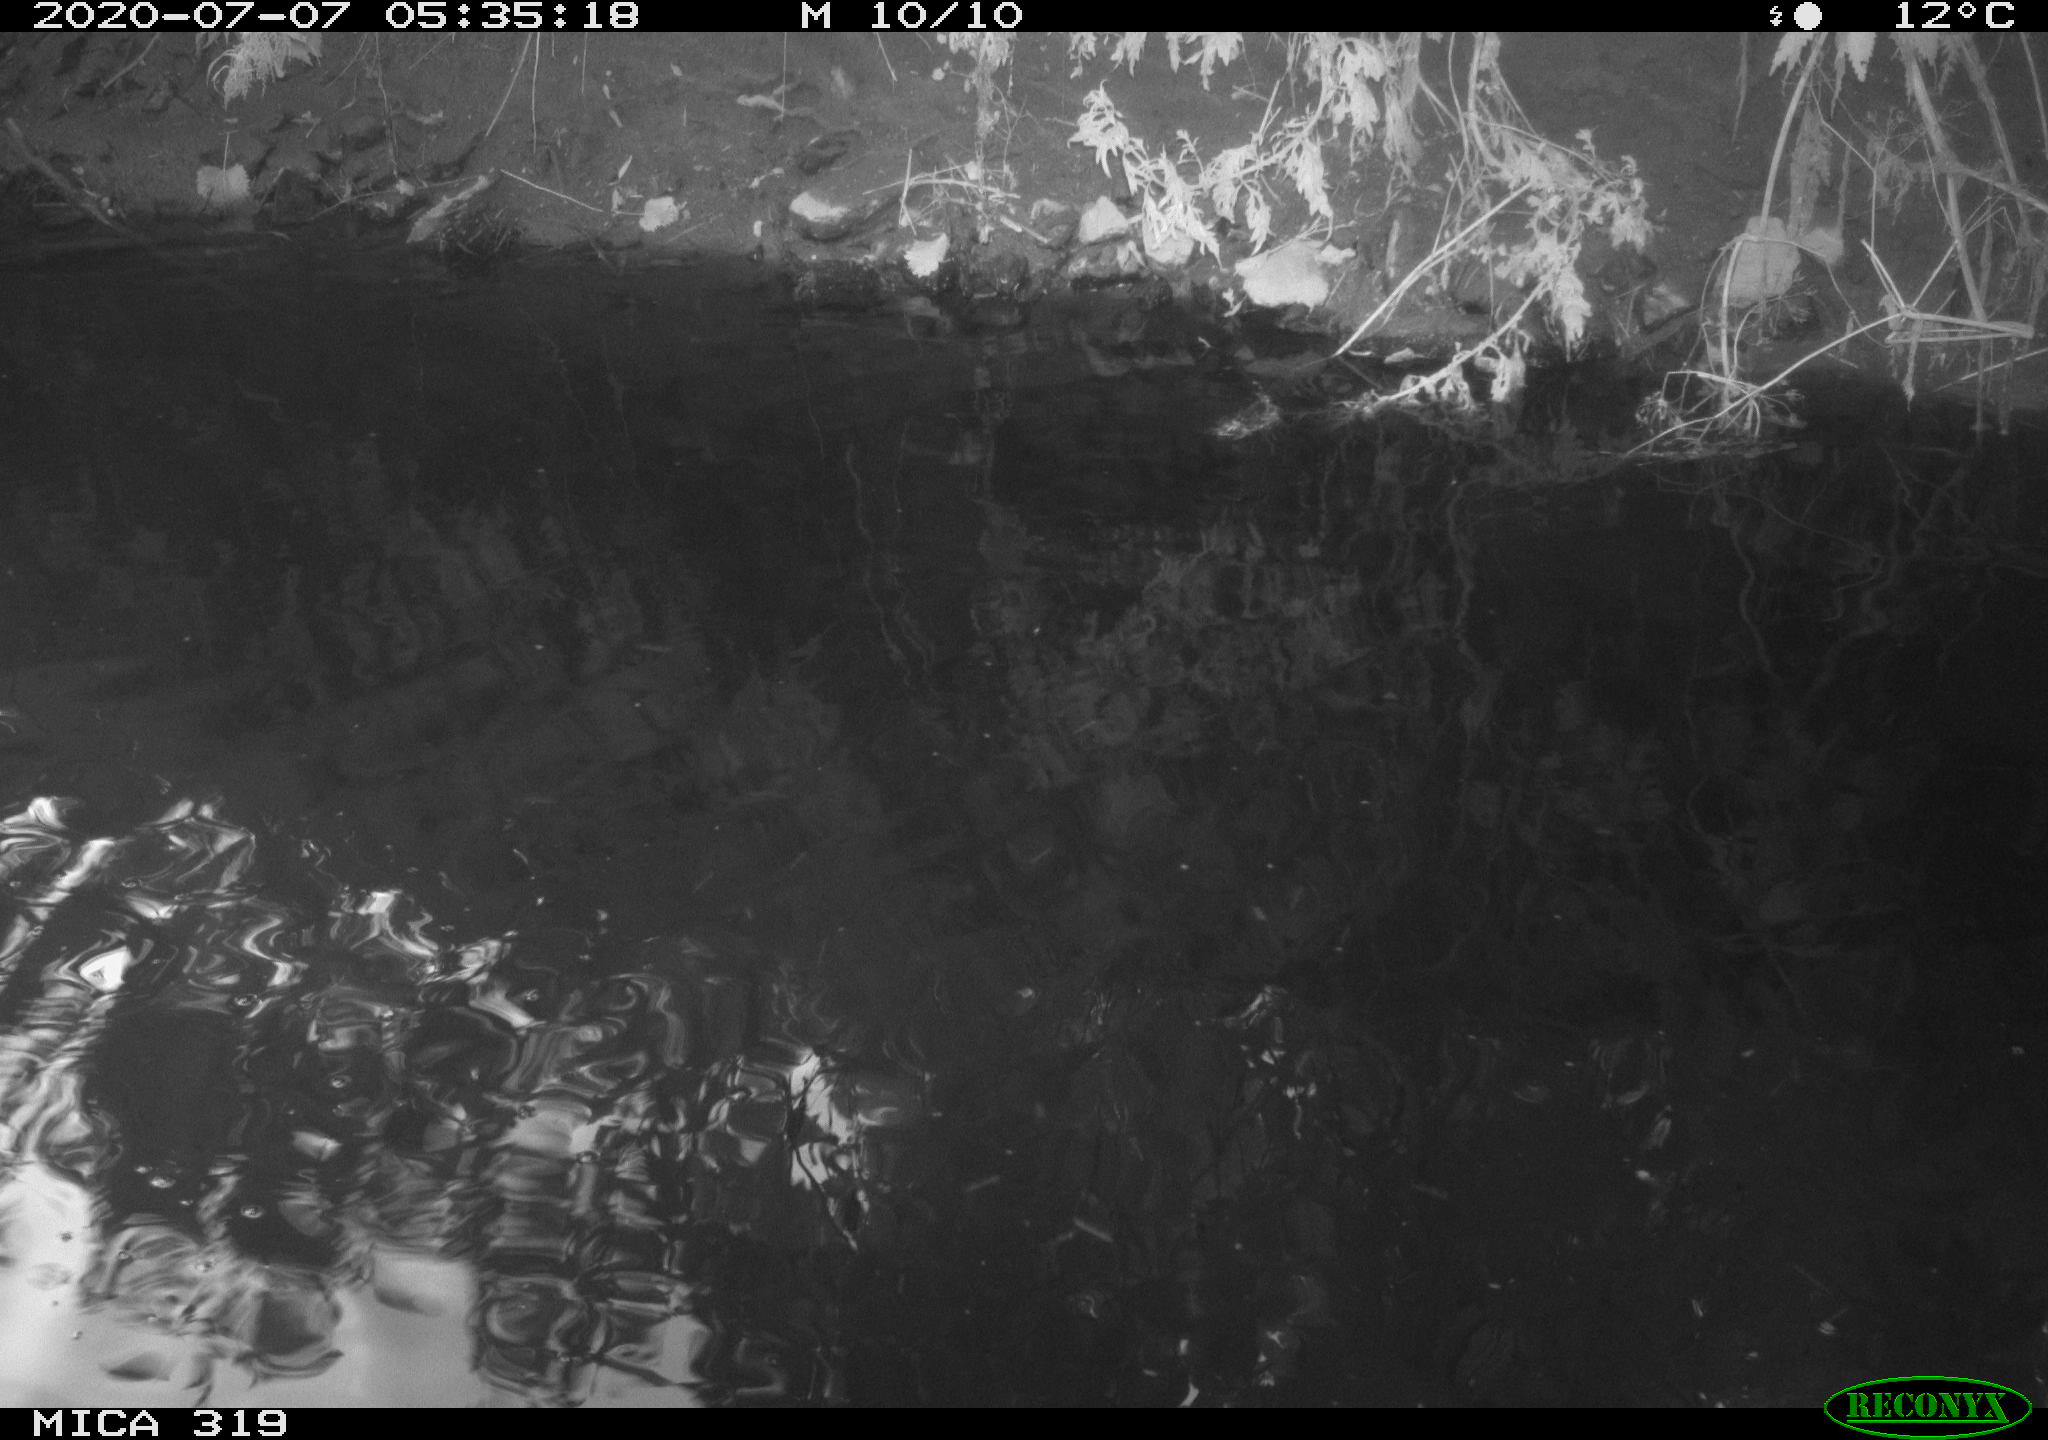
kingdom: Animalia
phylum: Chordata
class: Aves
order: Anseriformes
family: Anatidae
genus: Anas
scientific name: Anas platyrhynchos
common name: Mallard
